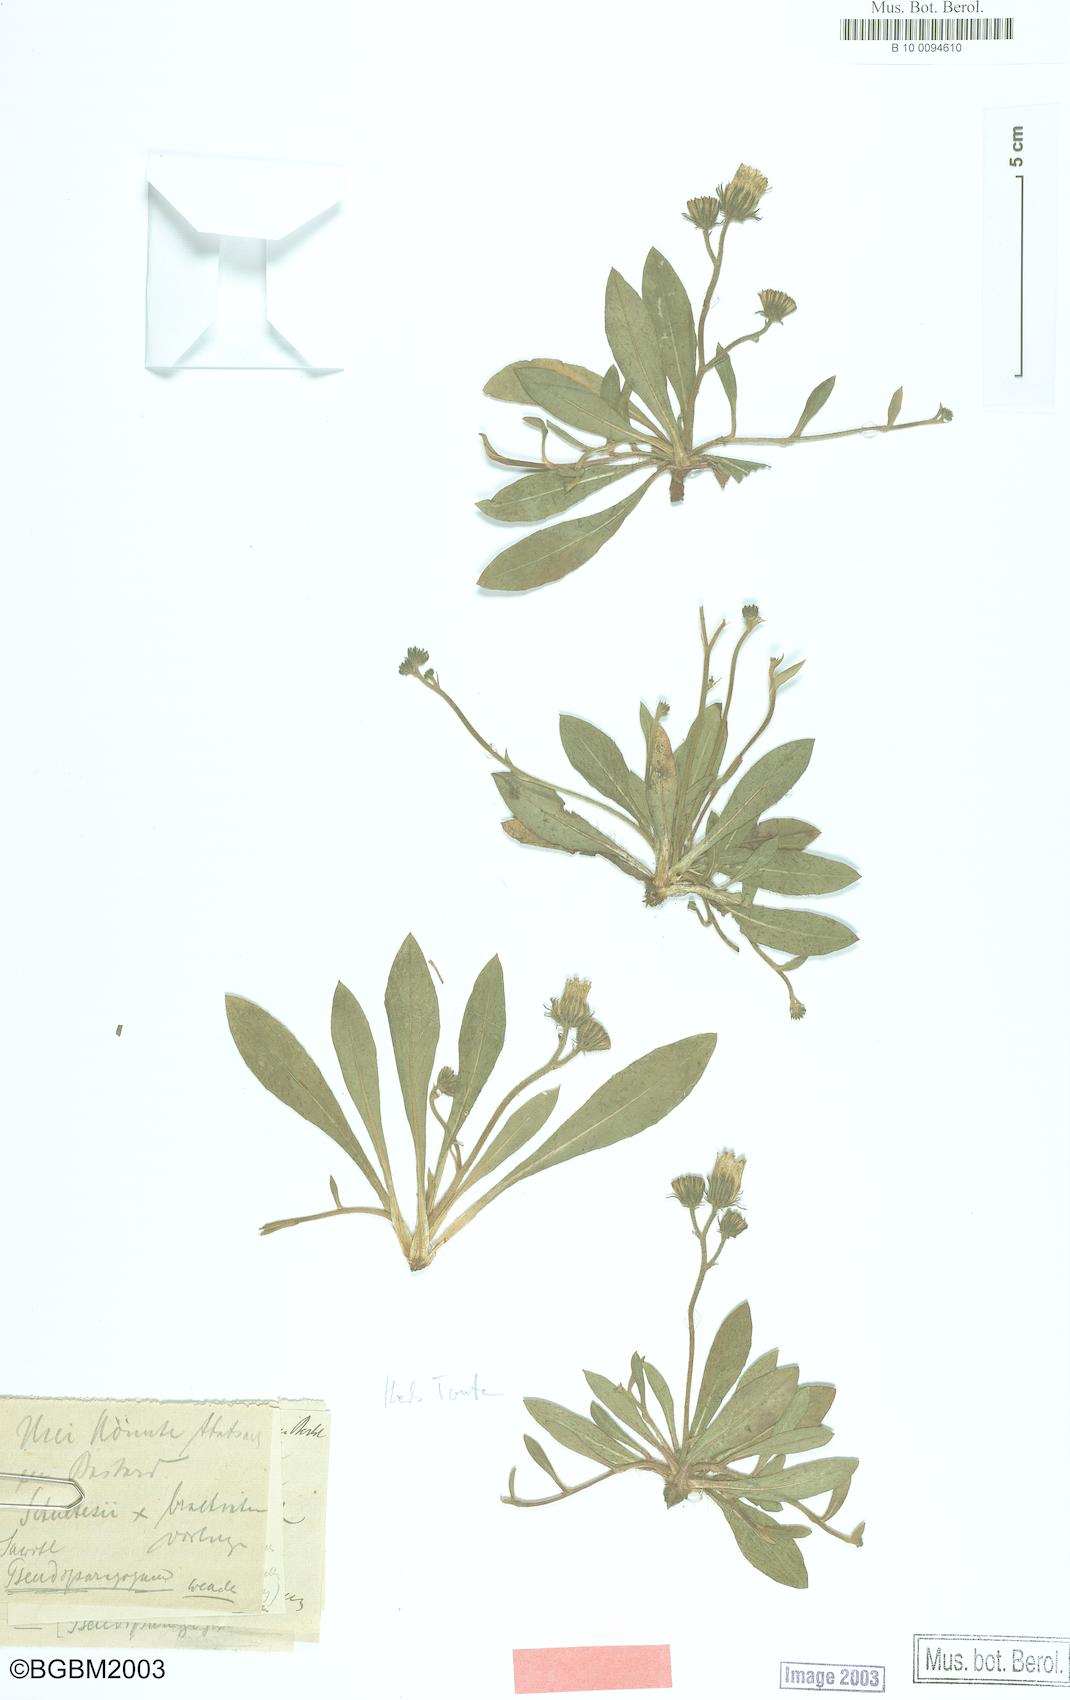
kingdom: Plantae
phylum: Tracheophyta
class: Magnoliopsida
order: Asterales
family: Asteraceae
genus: Pilosella
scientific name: Pilosella pseudoparagoga
